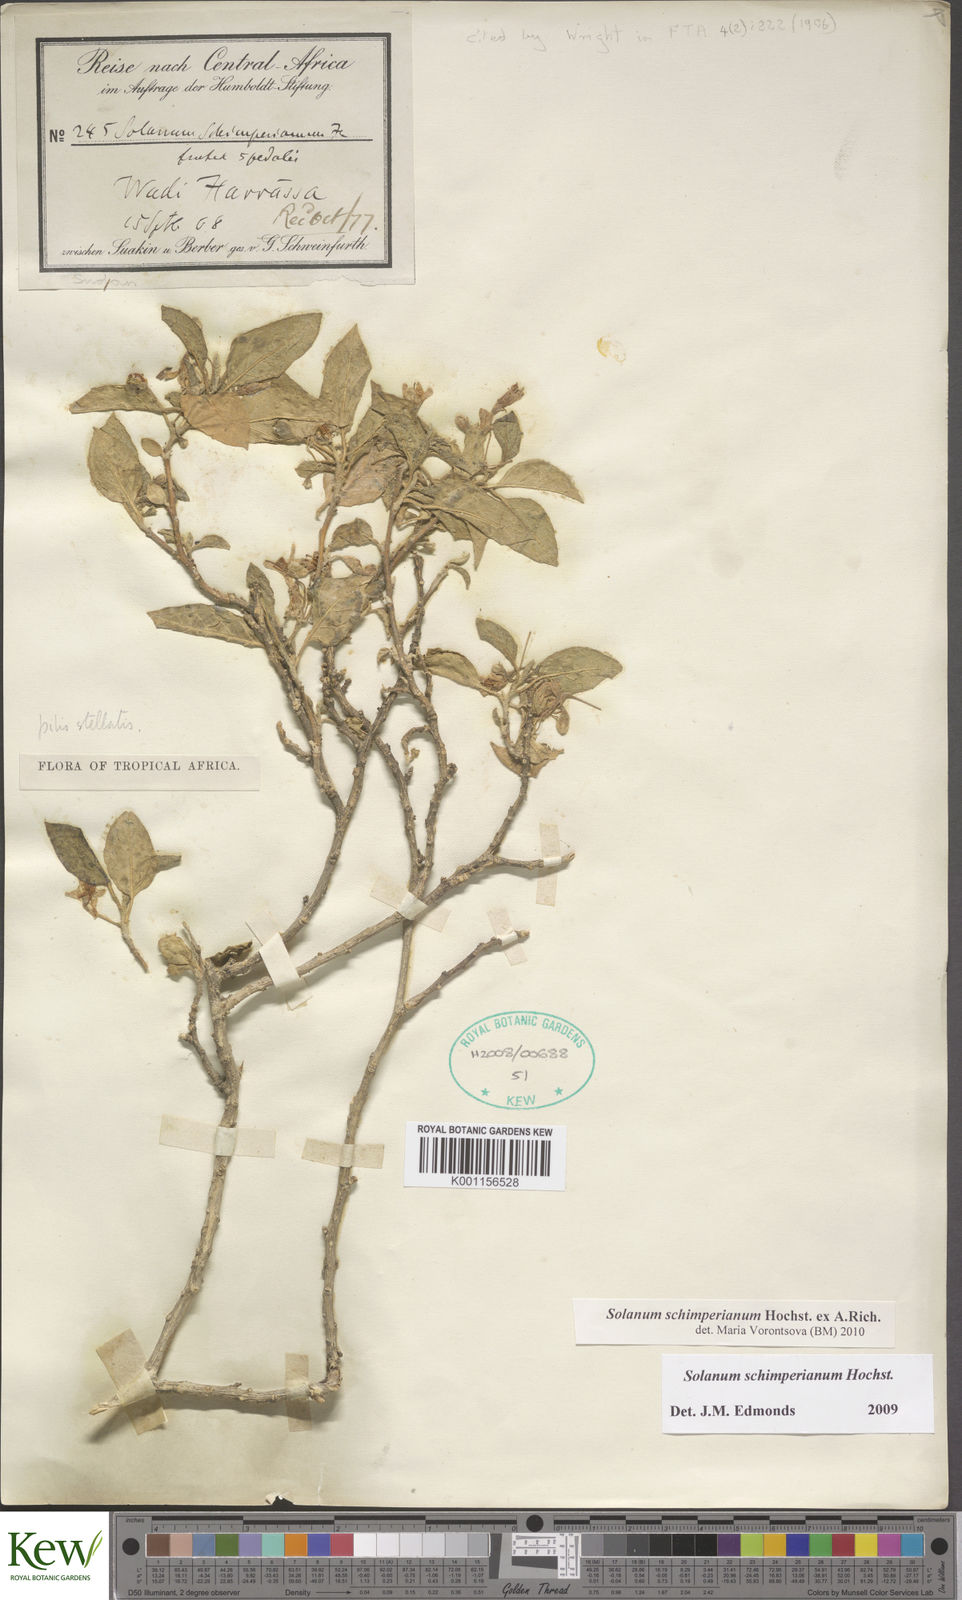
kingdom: Plantae
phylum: Tracheophyta
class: Magnoliopsida
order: Solanales
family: Solanaceae
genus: Solanum
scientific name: Solanum
